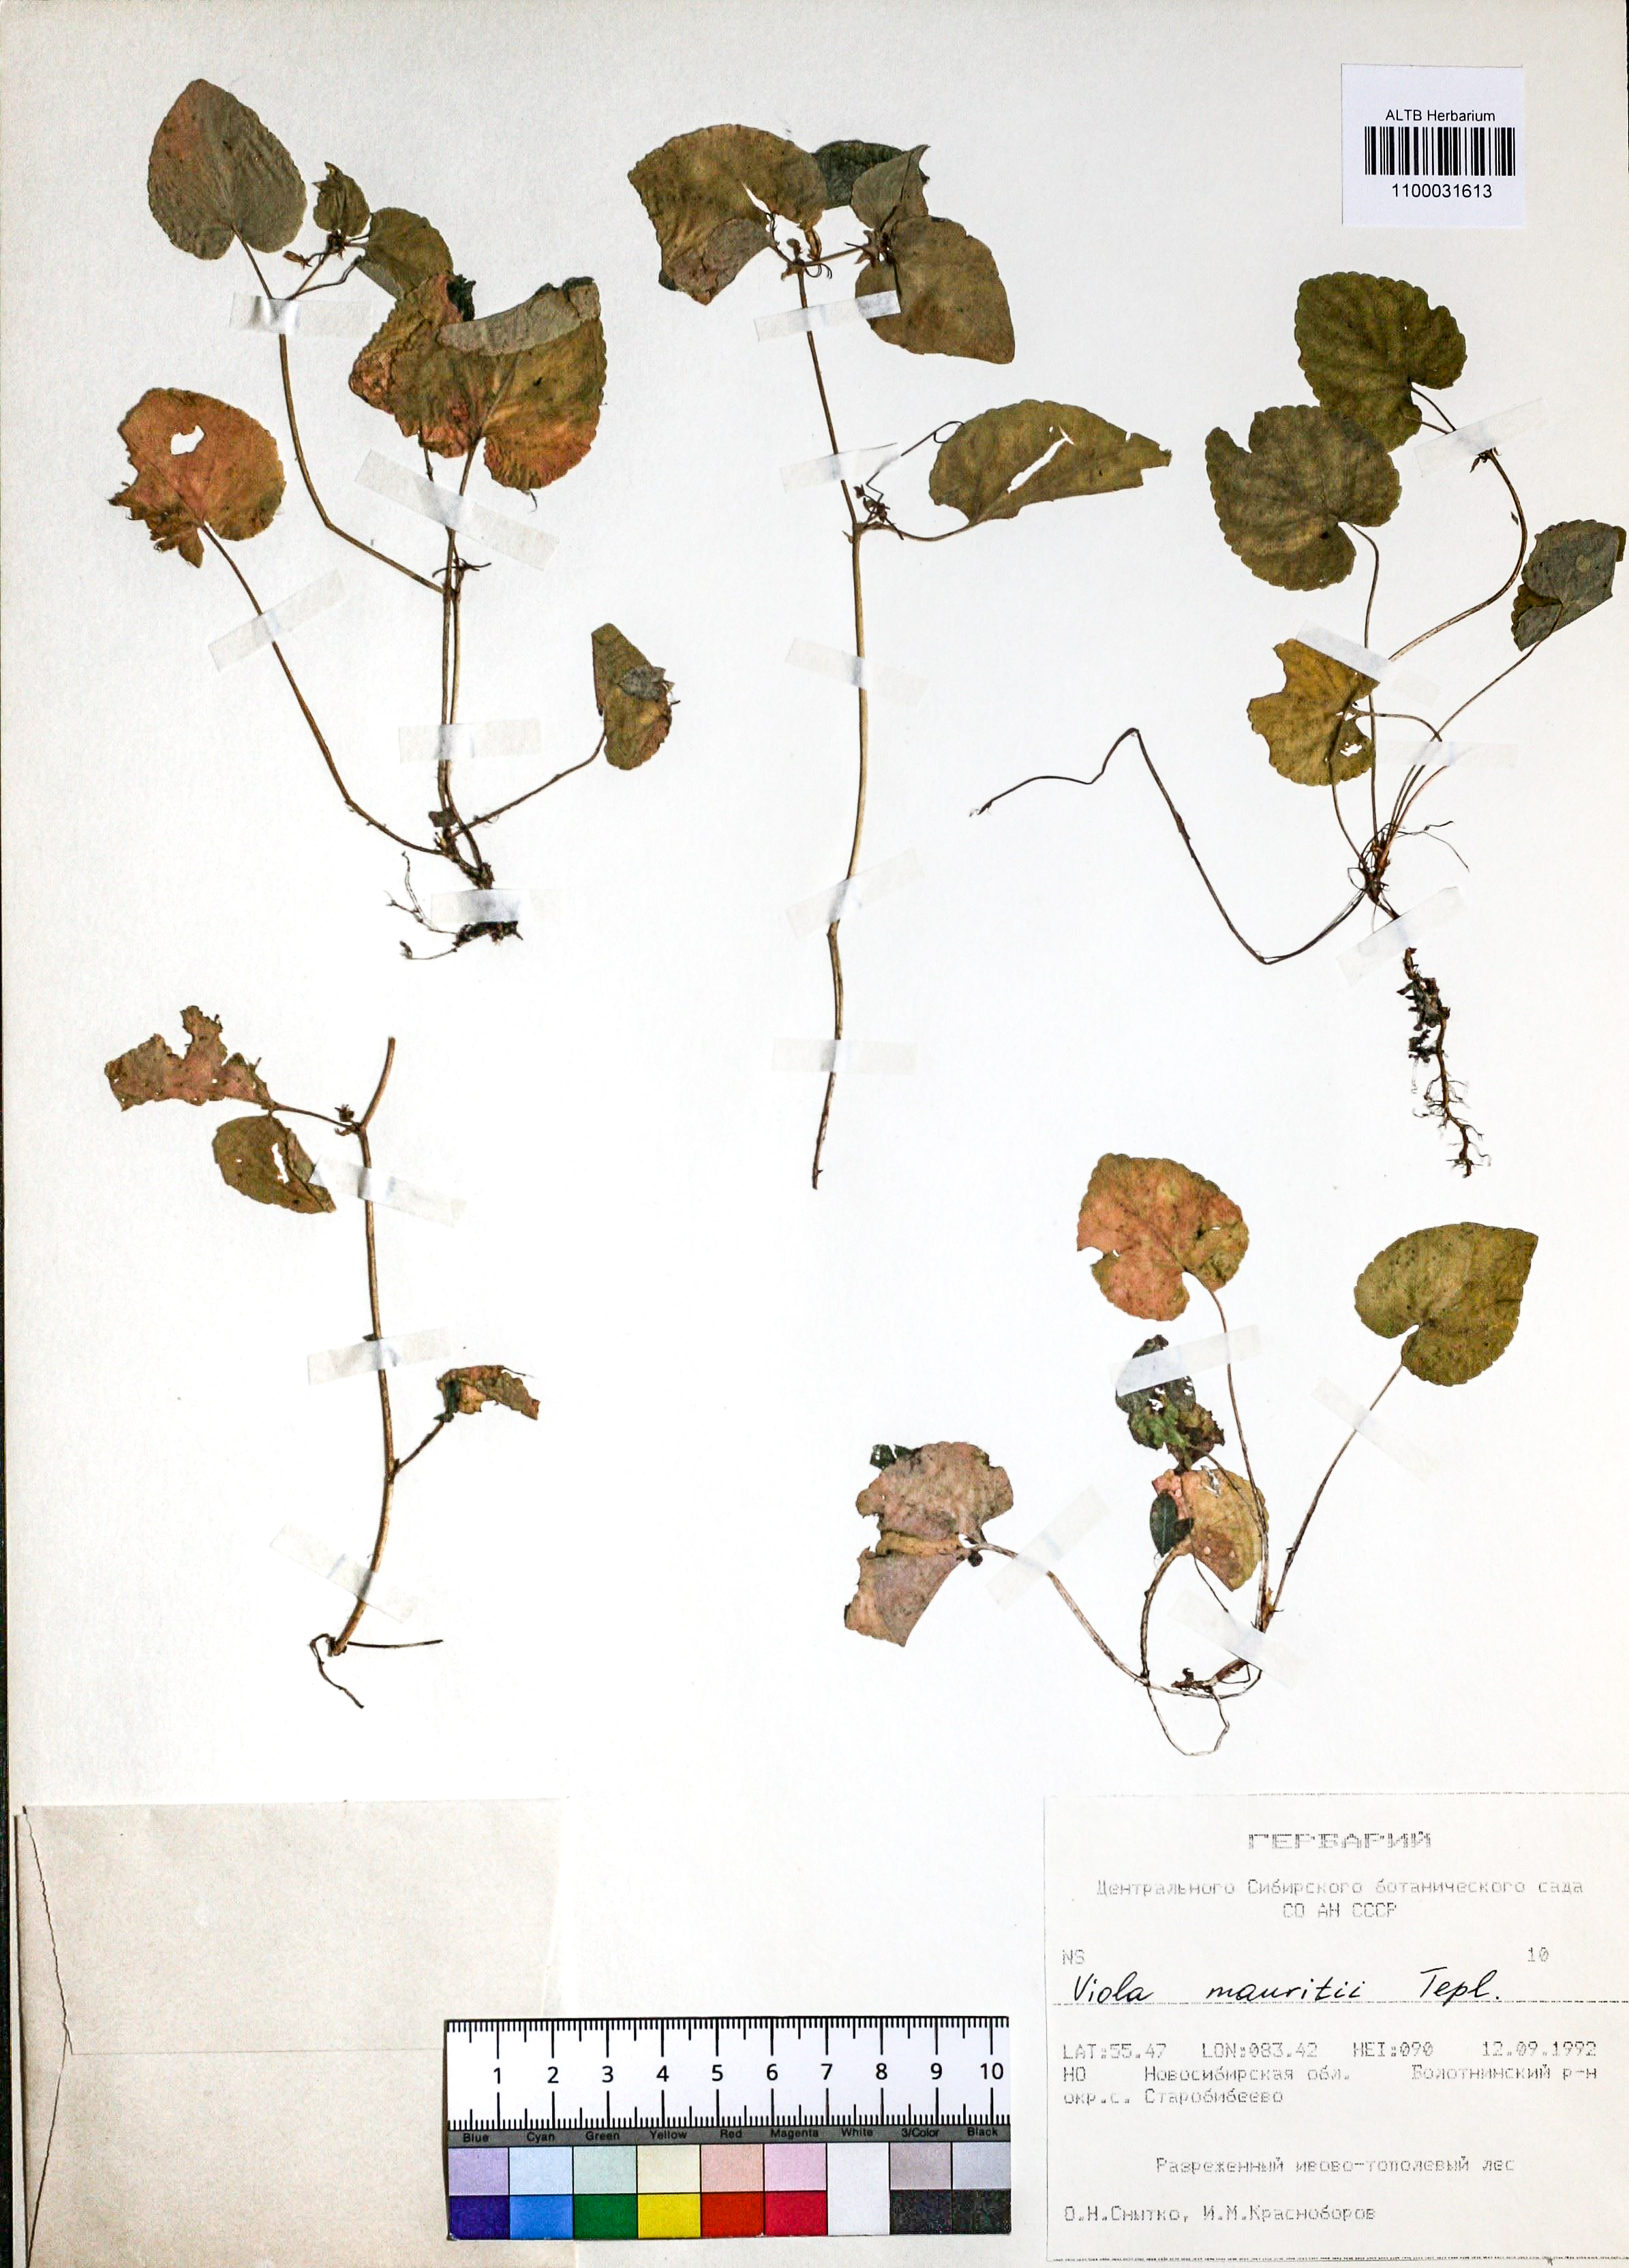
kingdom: Plantae
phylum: Tracheophyta
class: Magnoliopsida
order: Malpighiales
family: Violaceae
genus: Viola
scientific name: Viola mauritii
